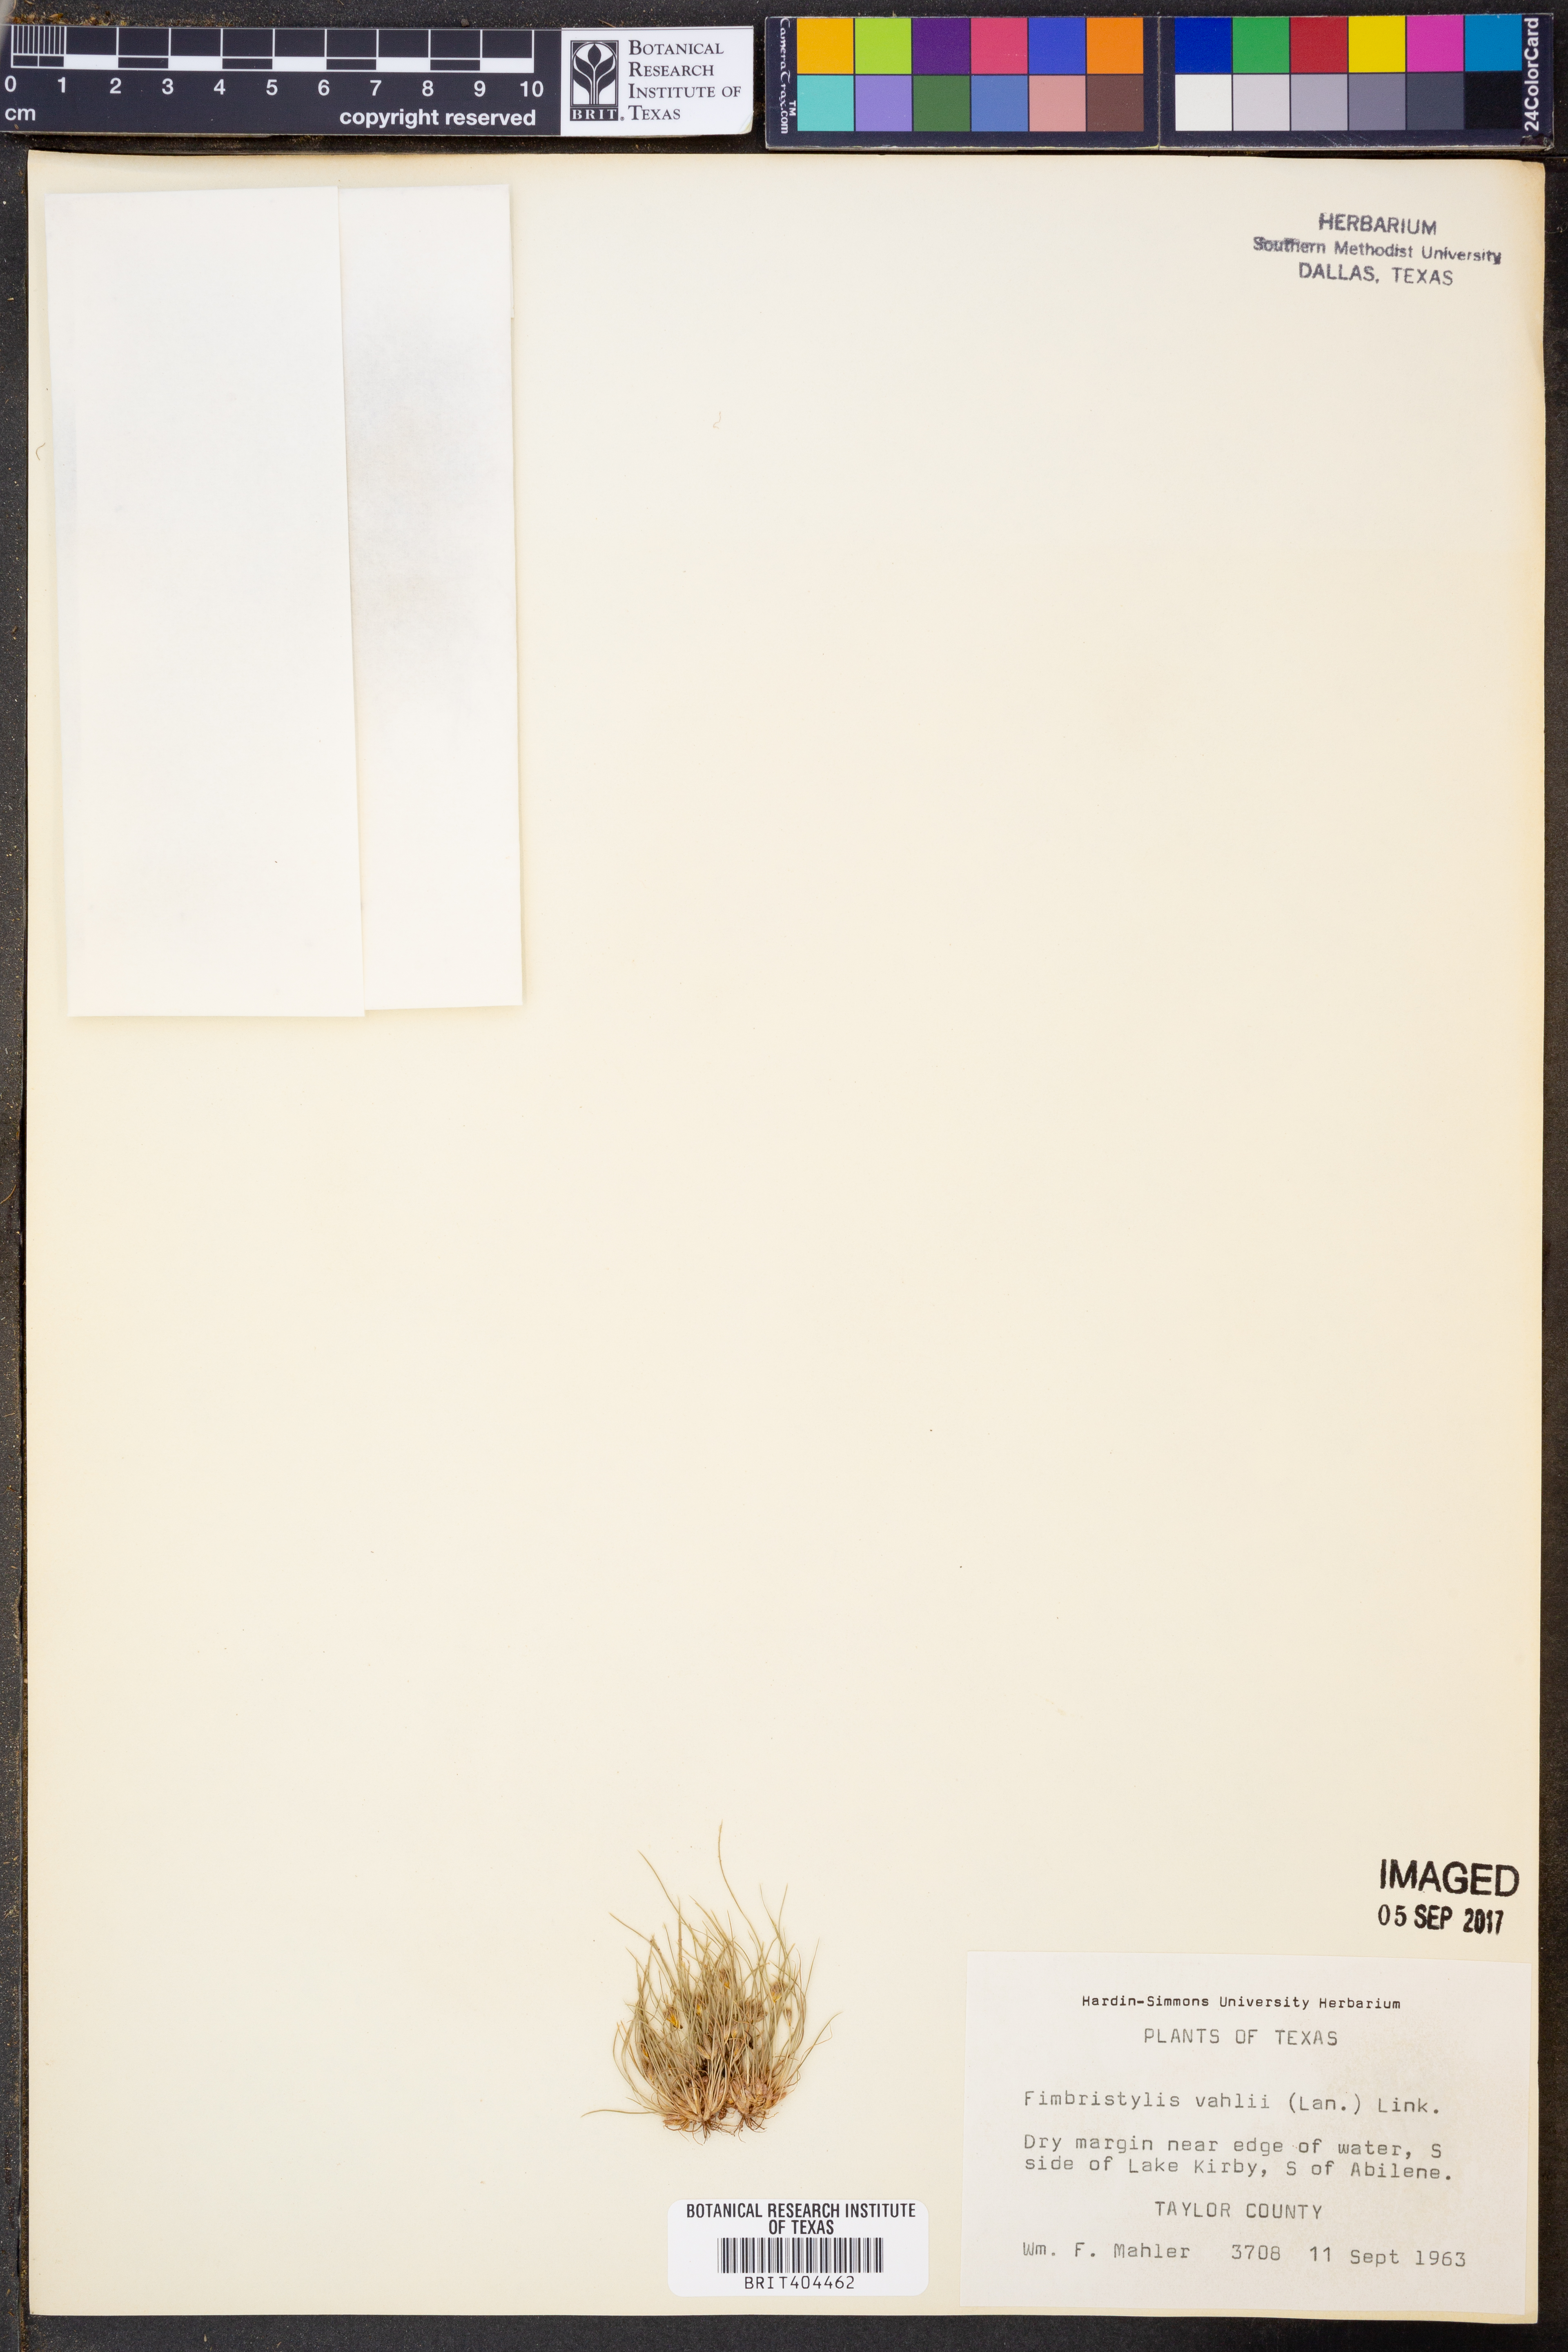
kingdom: Plantae
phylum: Tracheophyta
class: Liliopsida
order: Poales
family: Cyperaceae
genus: Fimbristylis
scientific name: Fimbristylis vahlii
